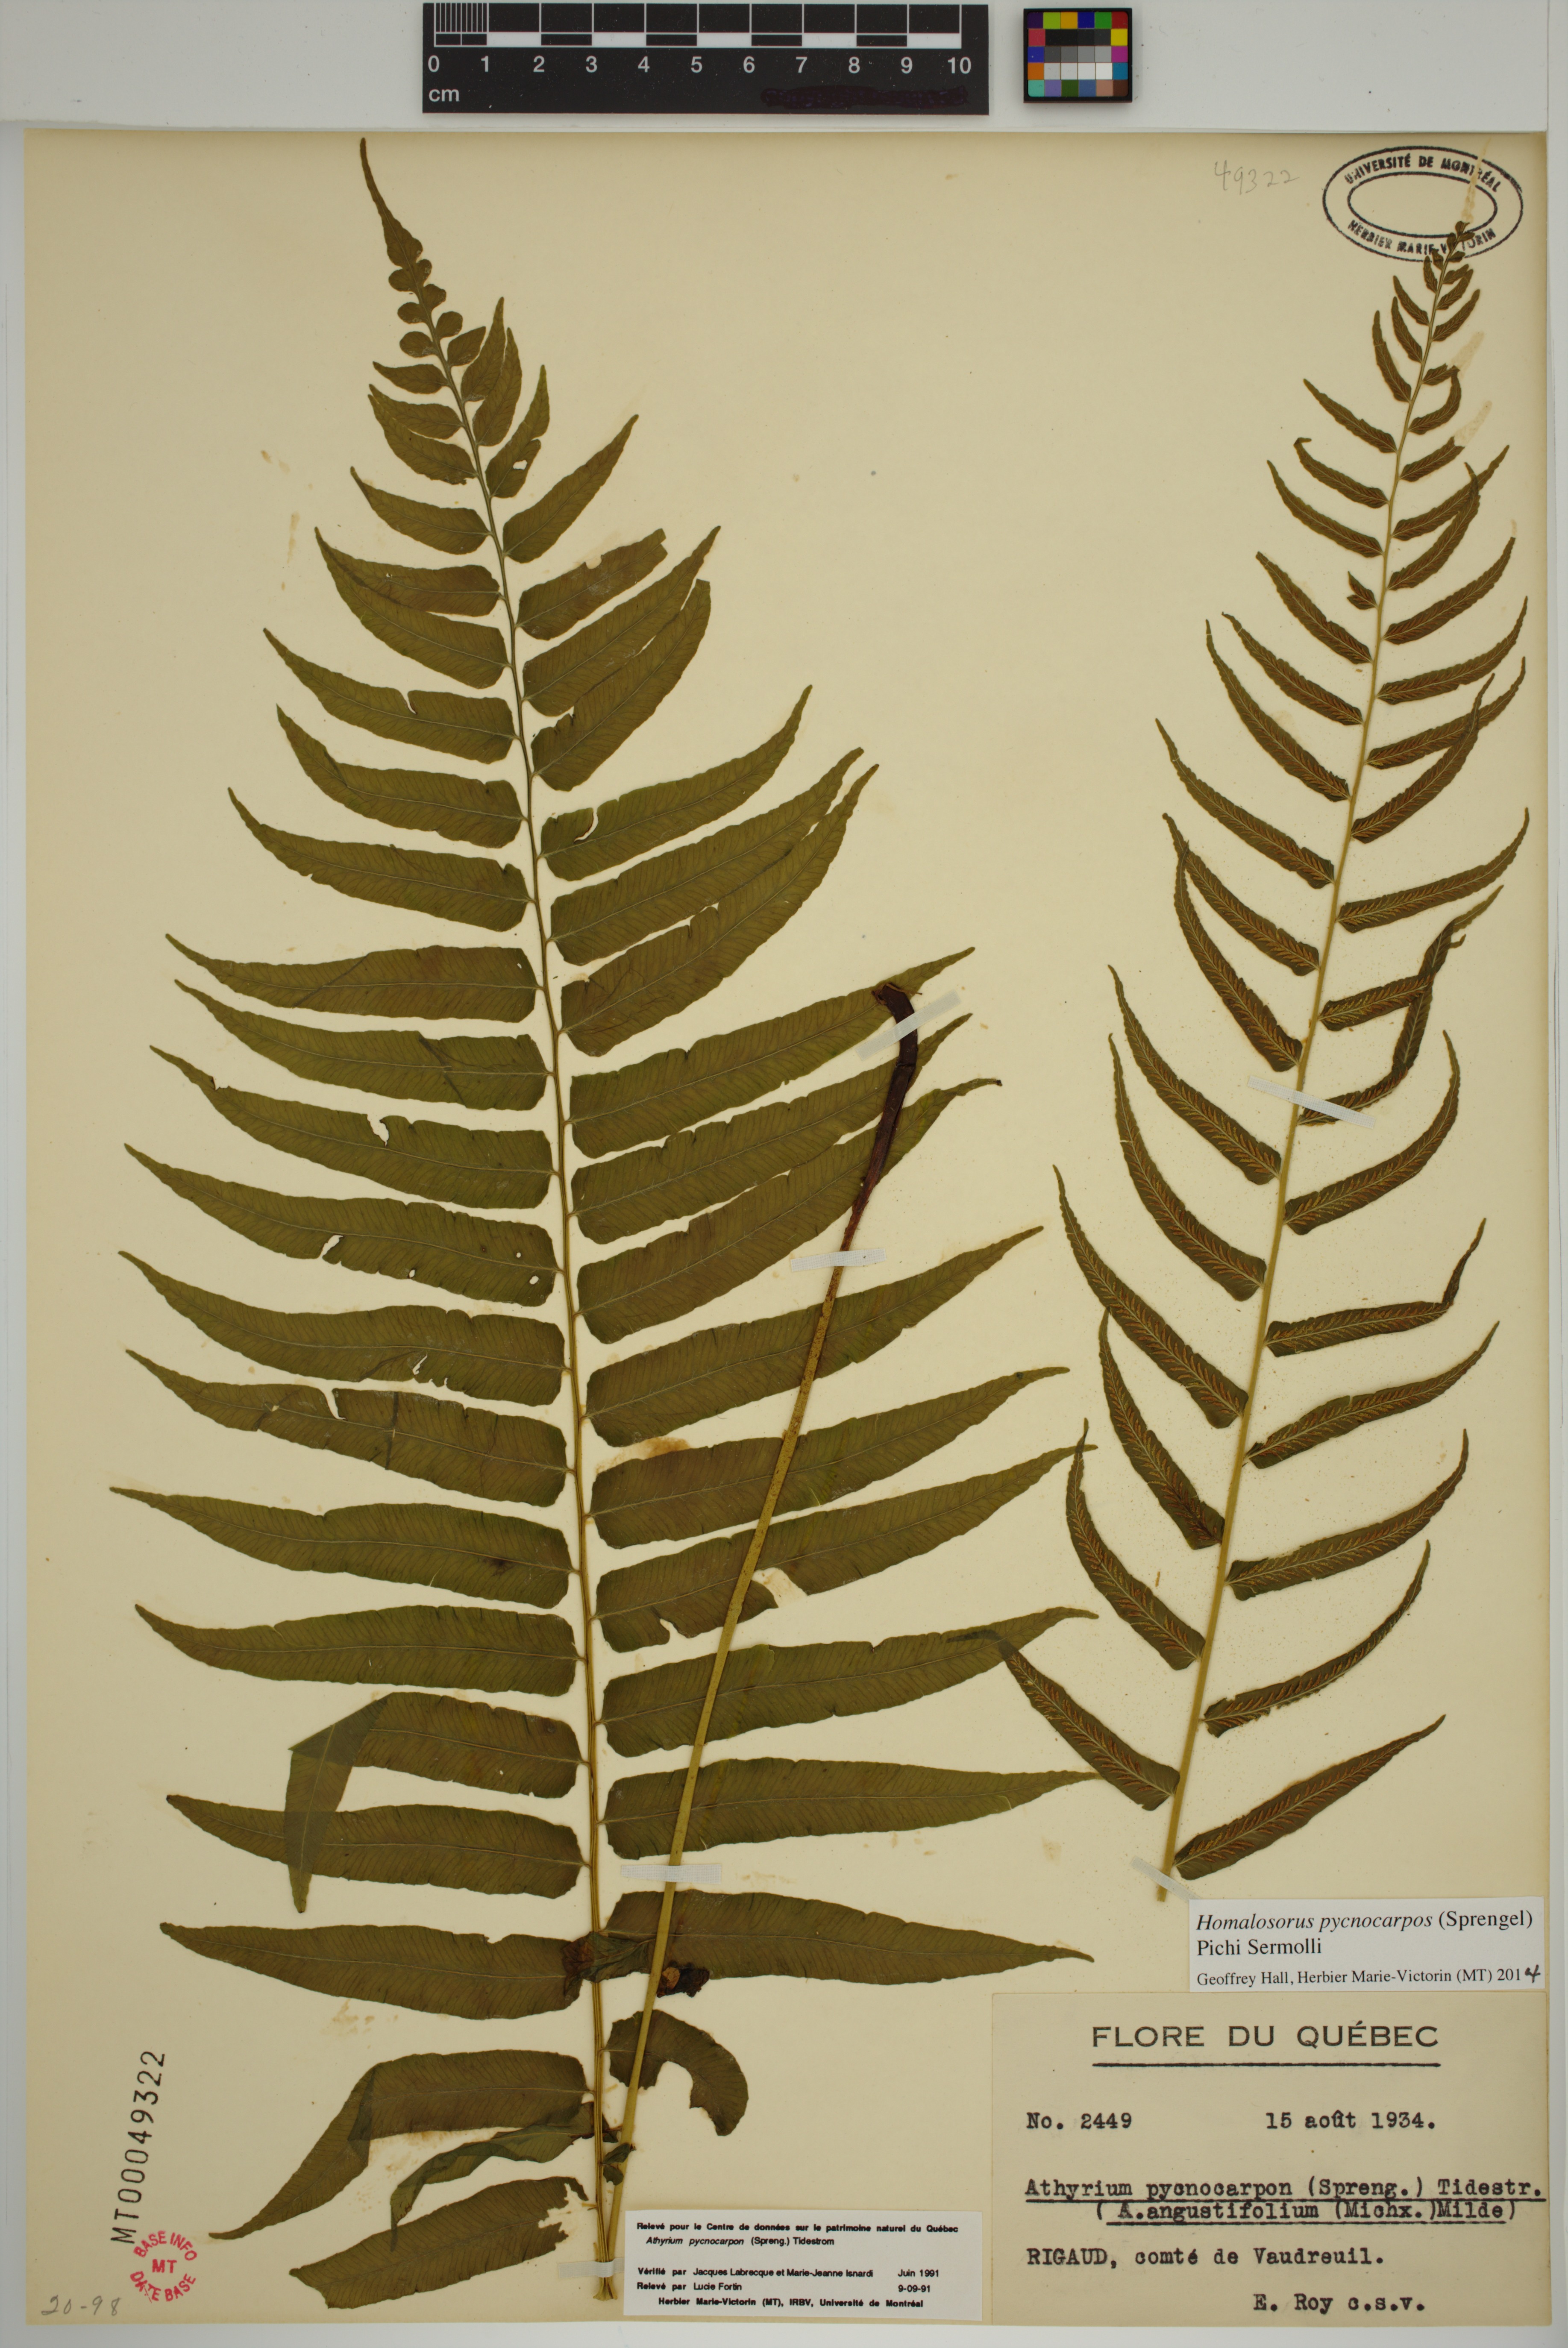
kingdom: Plantae
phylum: Tracheophyta
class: Polypodiopsida
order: Polypodiales
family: Diplaziopsidaceae
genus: Homalosorus
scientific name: Homalosorus pycnocarpos
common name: Glade fern
